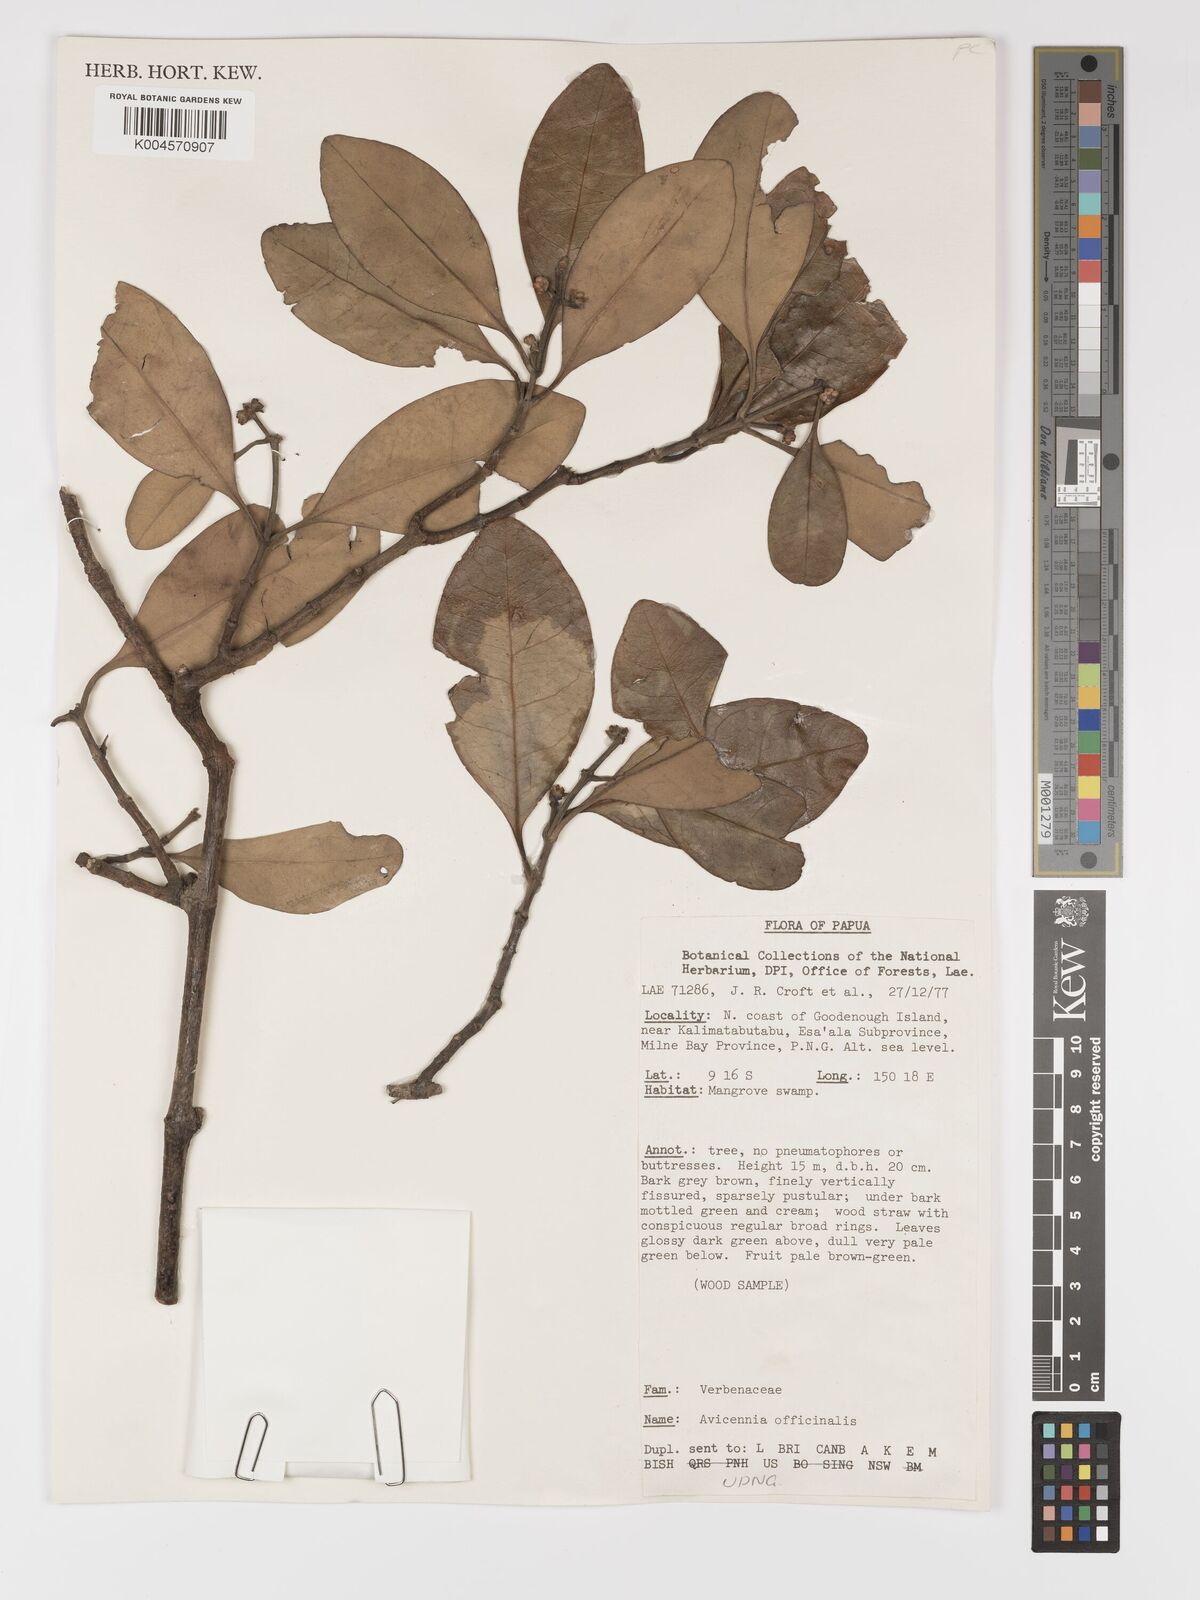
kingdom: Plantae
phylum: Tracheophyta
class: Magnoliopsida
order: Lamiales
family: Acanthaceae
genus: Avicennia
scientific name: Avicennia officinalis
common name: Baen
